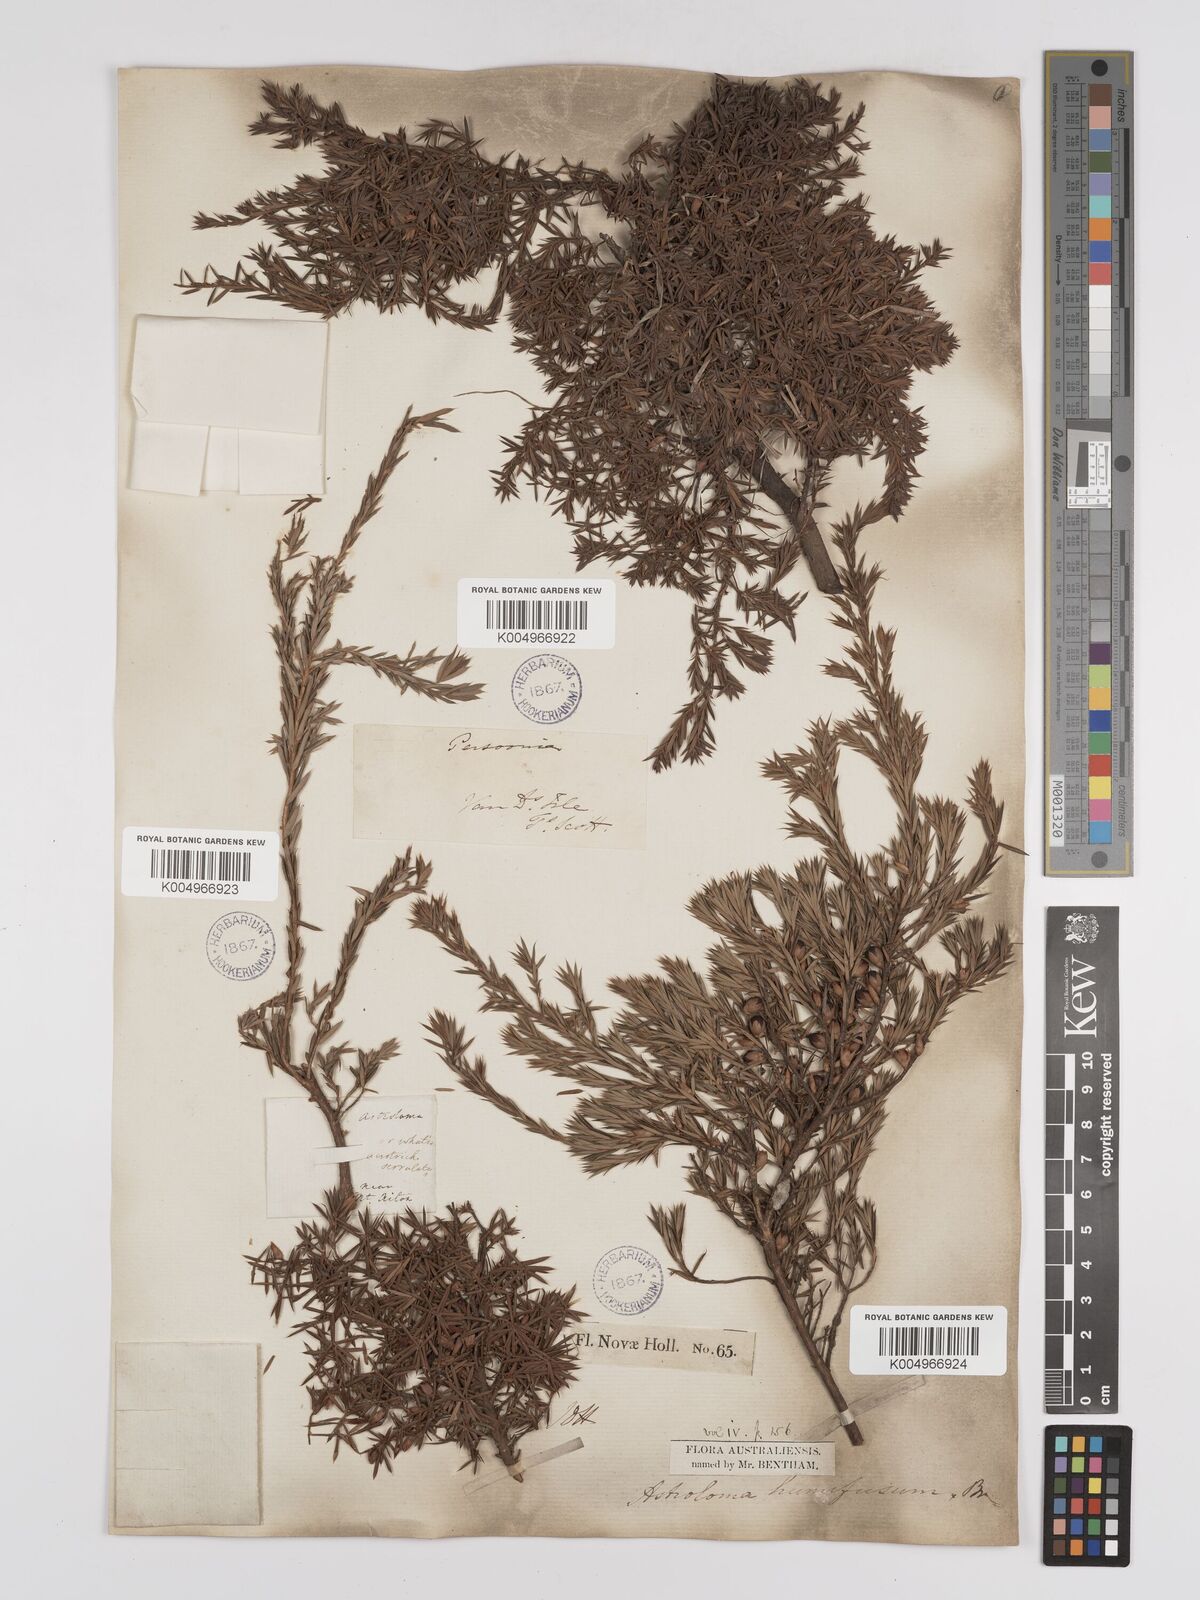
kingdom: Plantae
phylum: Tracheophyta
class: Magnoliopsida
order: Ericales
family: Ericaceae
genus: Styphelia
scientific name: Styphelia humifusa
